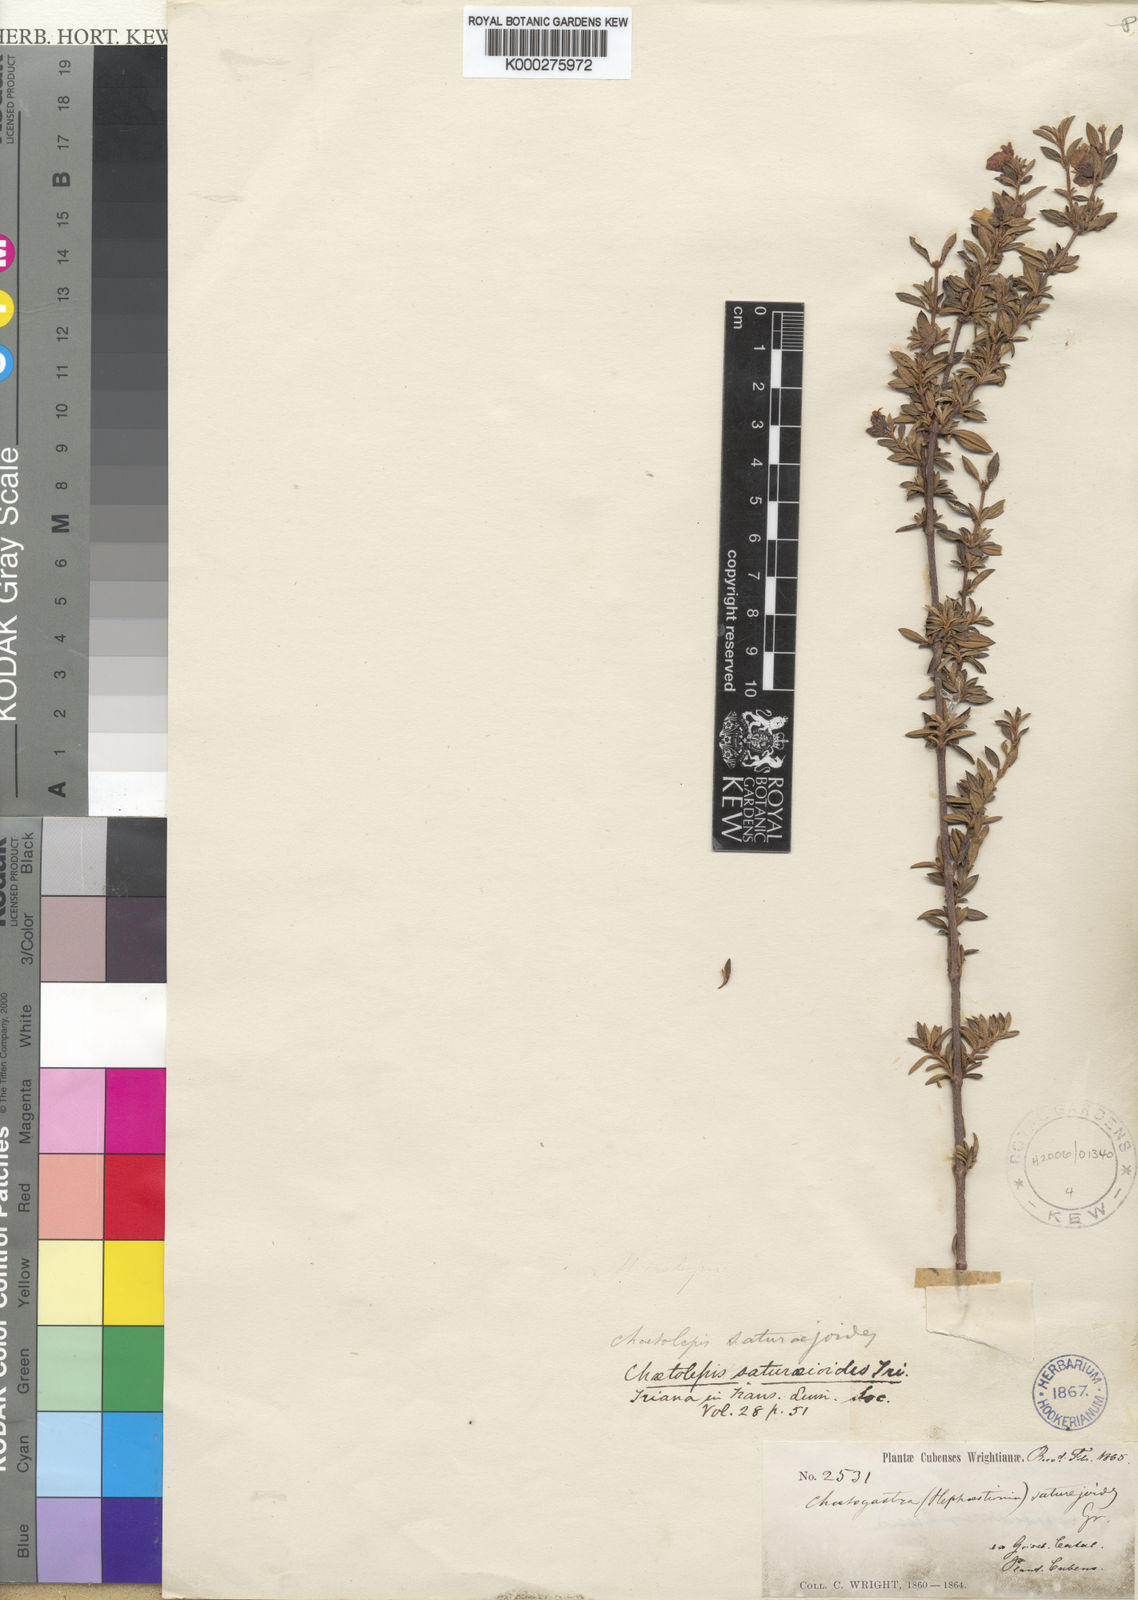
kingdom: Plantae
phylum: Tracheophyta
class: Magnoliopsida
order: Myrtales
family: Melastomataceae
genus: Tibouchina
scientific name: Tibouchina
